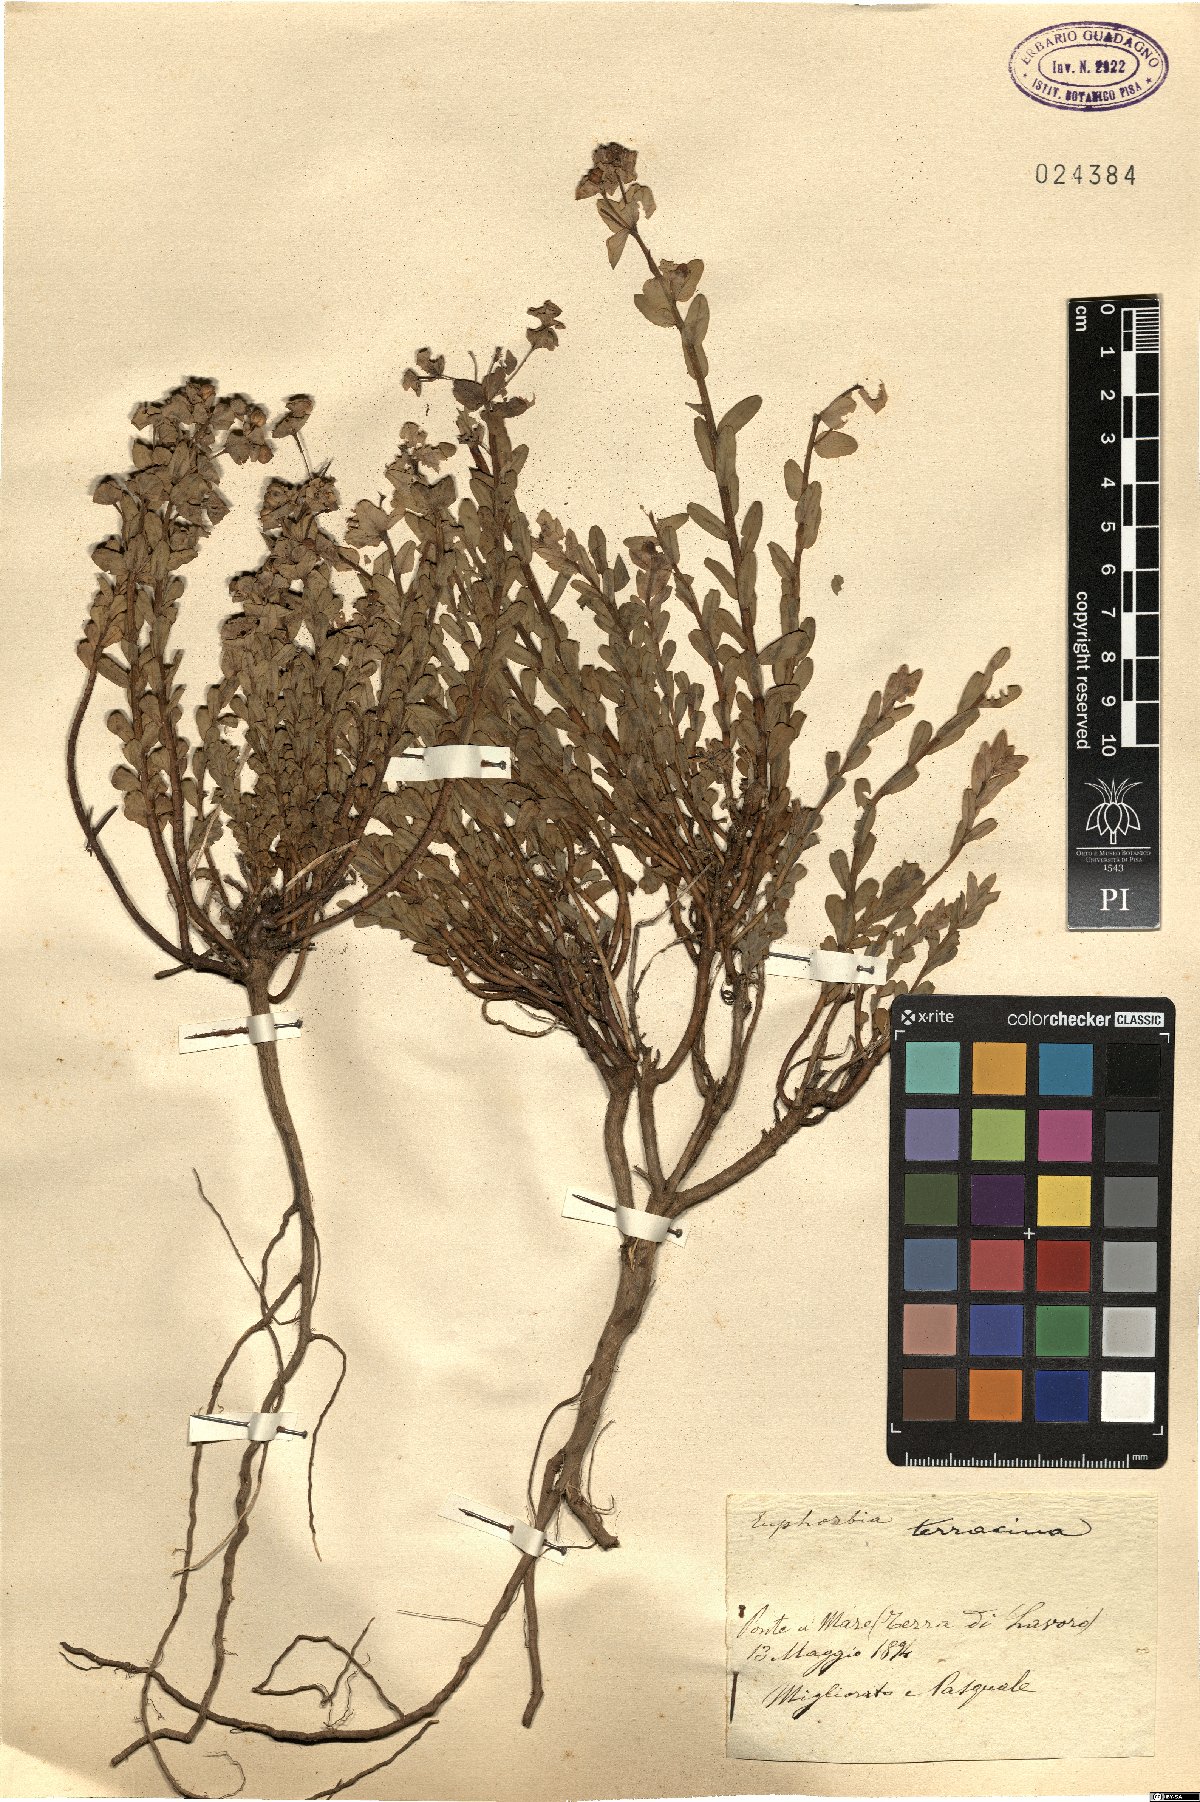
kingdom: Plantae
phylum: Tracheophyta
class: Magnoliopsida
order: Malpighiales
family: Euphorbiaceae
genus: Euphorbia
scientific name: Euphorbia terracina
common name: Geraldton carnation weed
